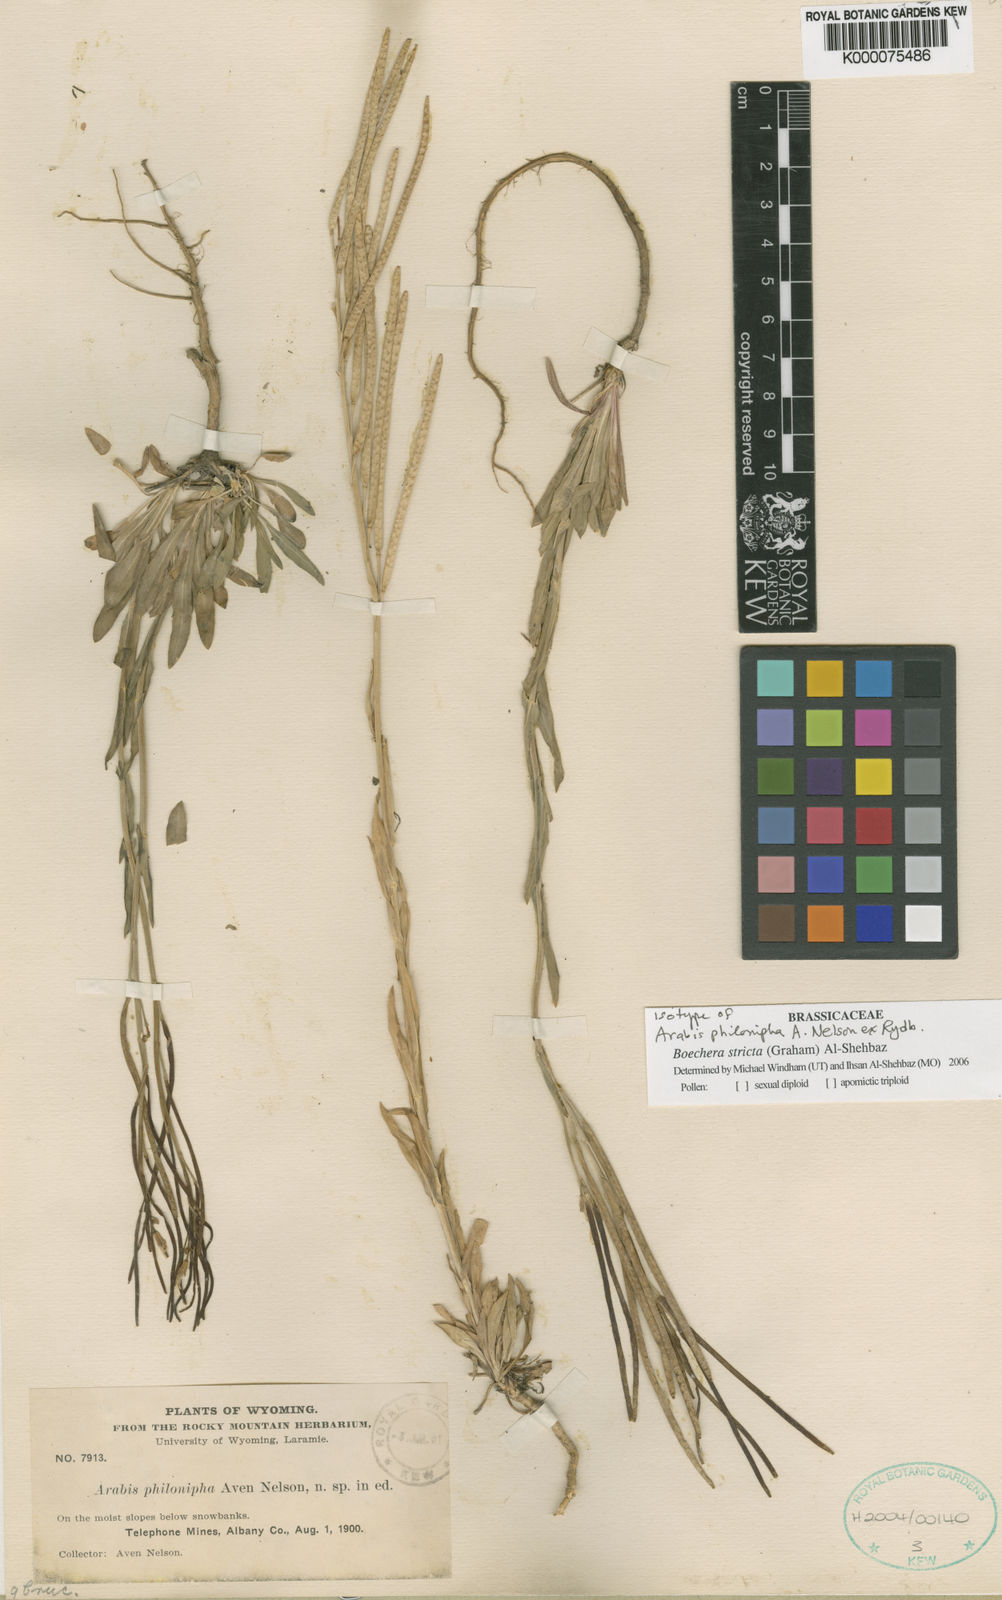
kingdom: Plantae
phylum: Tracheophyta
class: Magnoliopsida
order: Brassicales
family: Brassicaceae
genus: Arabis
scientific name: Arabis
